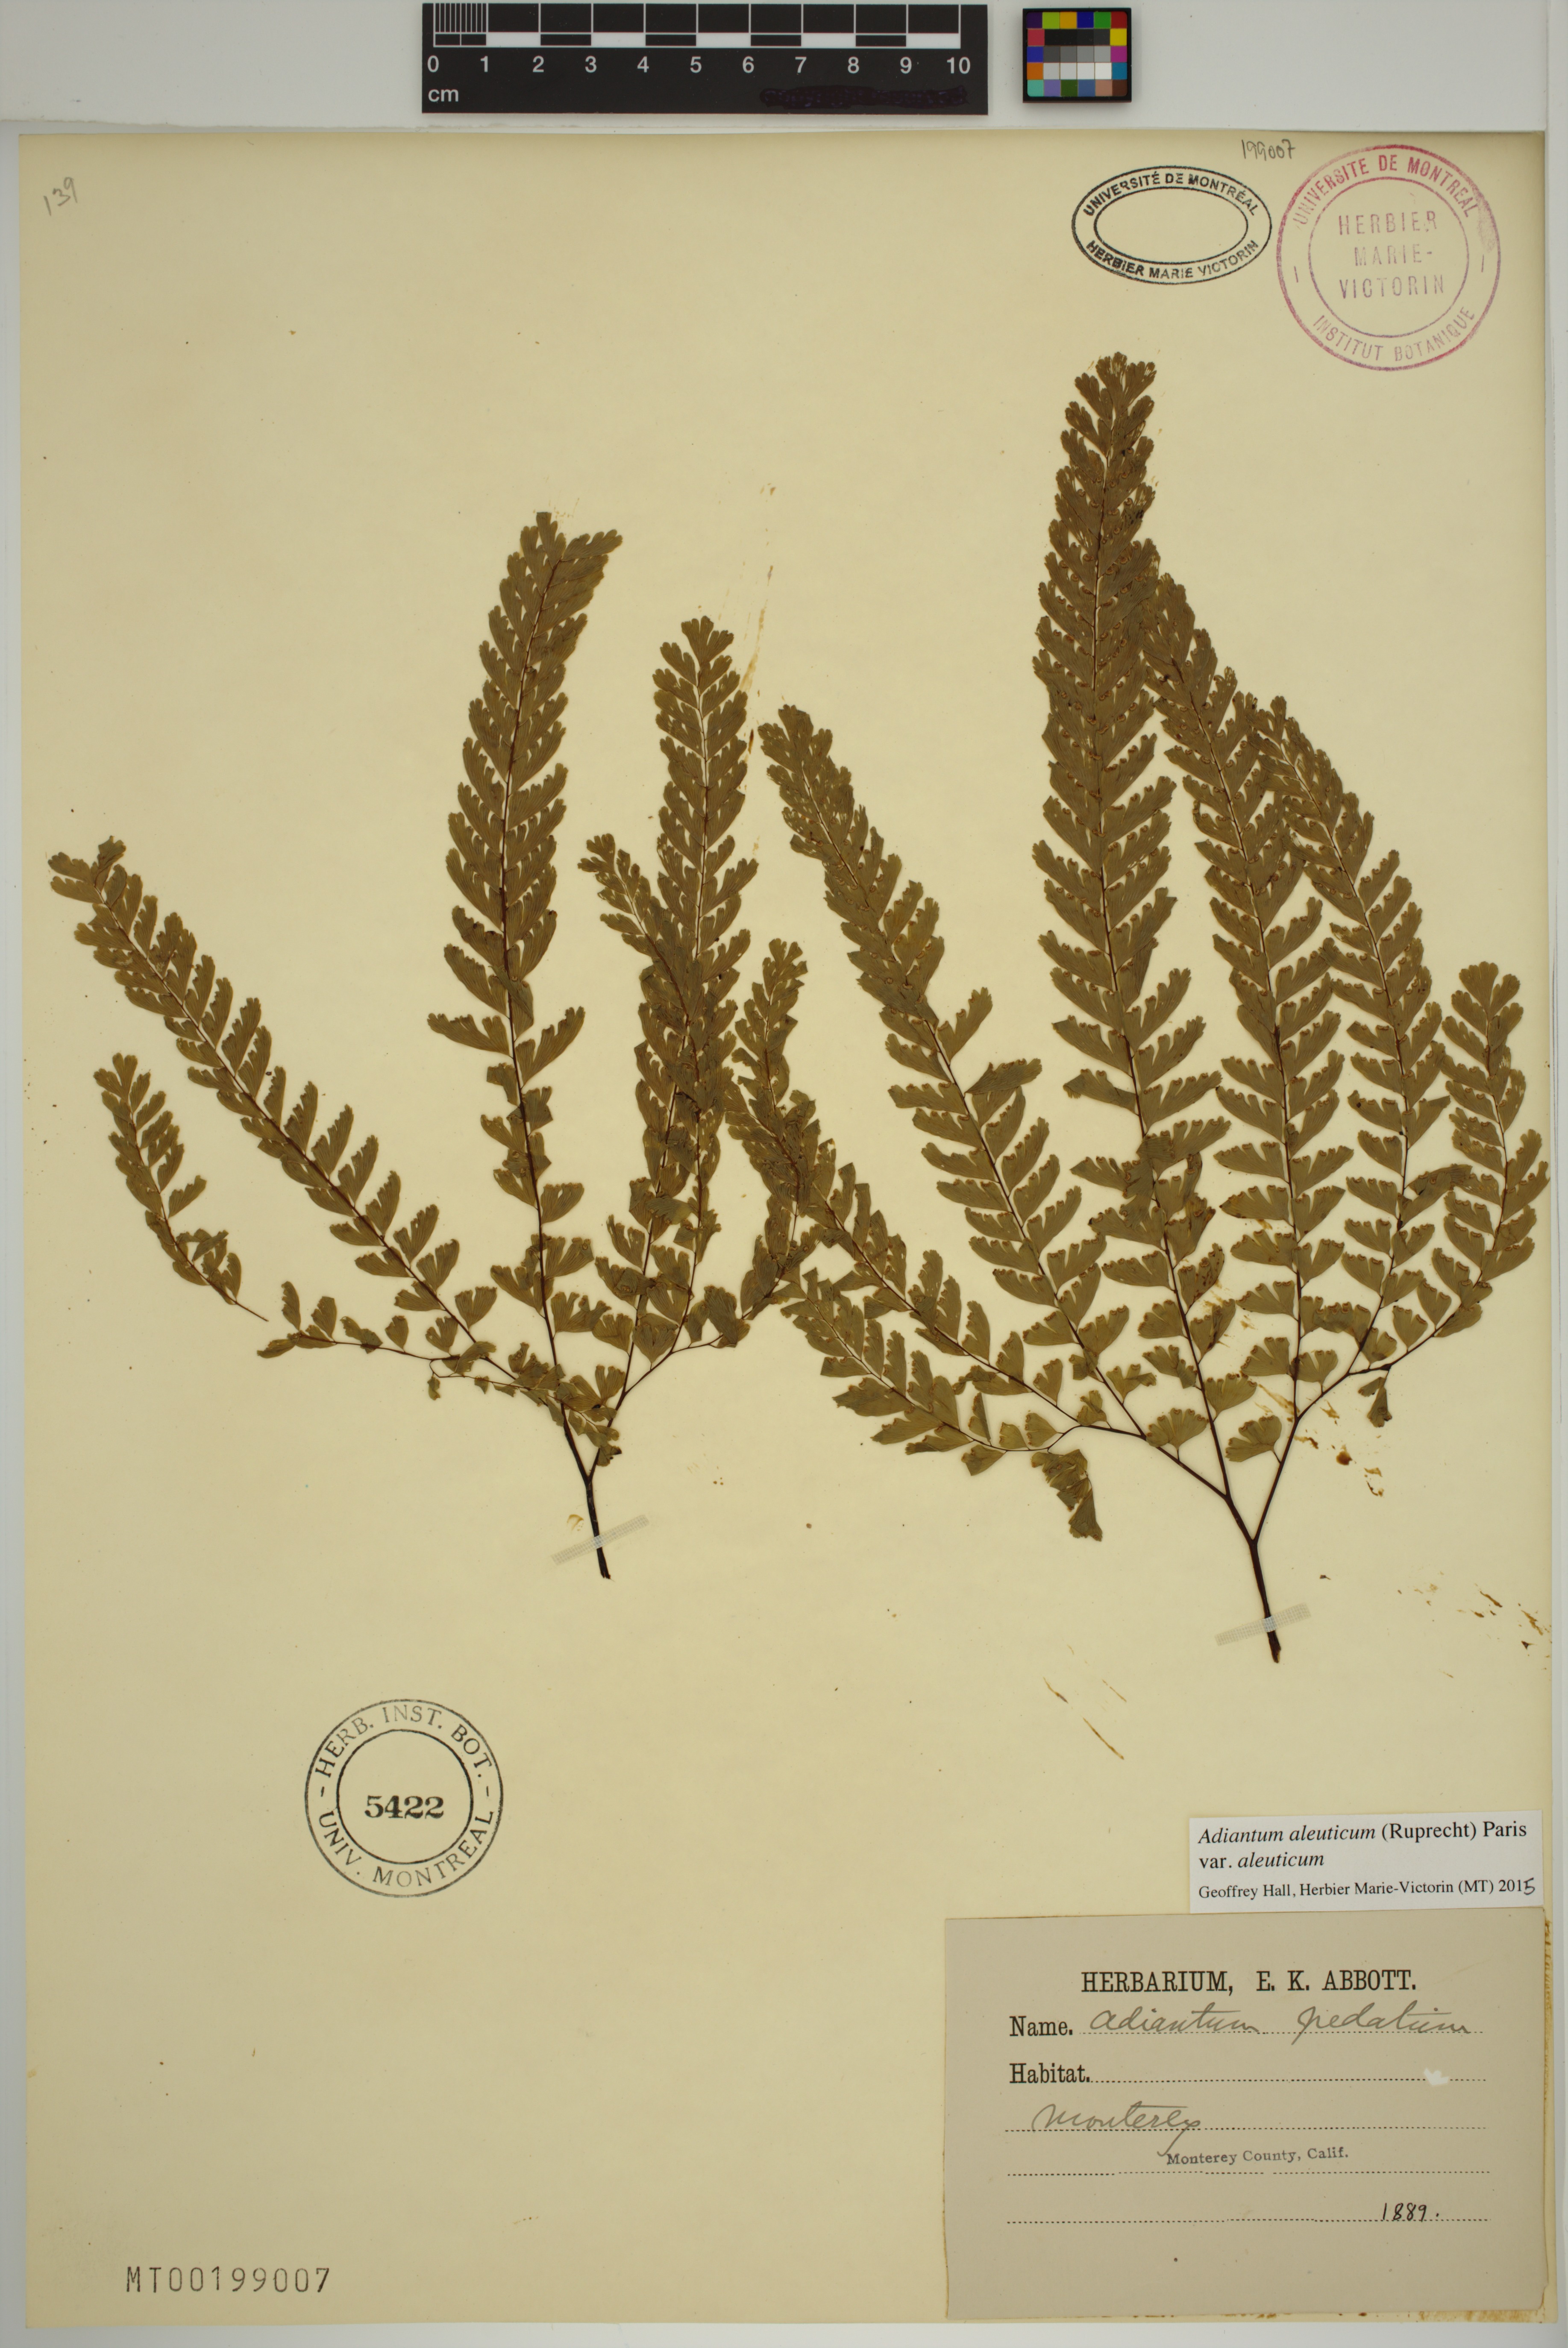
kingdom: Plantae
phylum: Tracheophyta
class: Polypodiopsida
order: Polypodiales
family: Pteridaceae
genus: Adiantum
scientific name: Adiantum aleuticum
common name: Aleutian maidenhair fern
